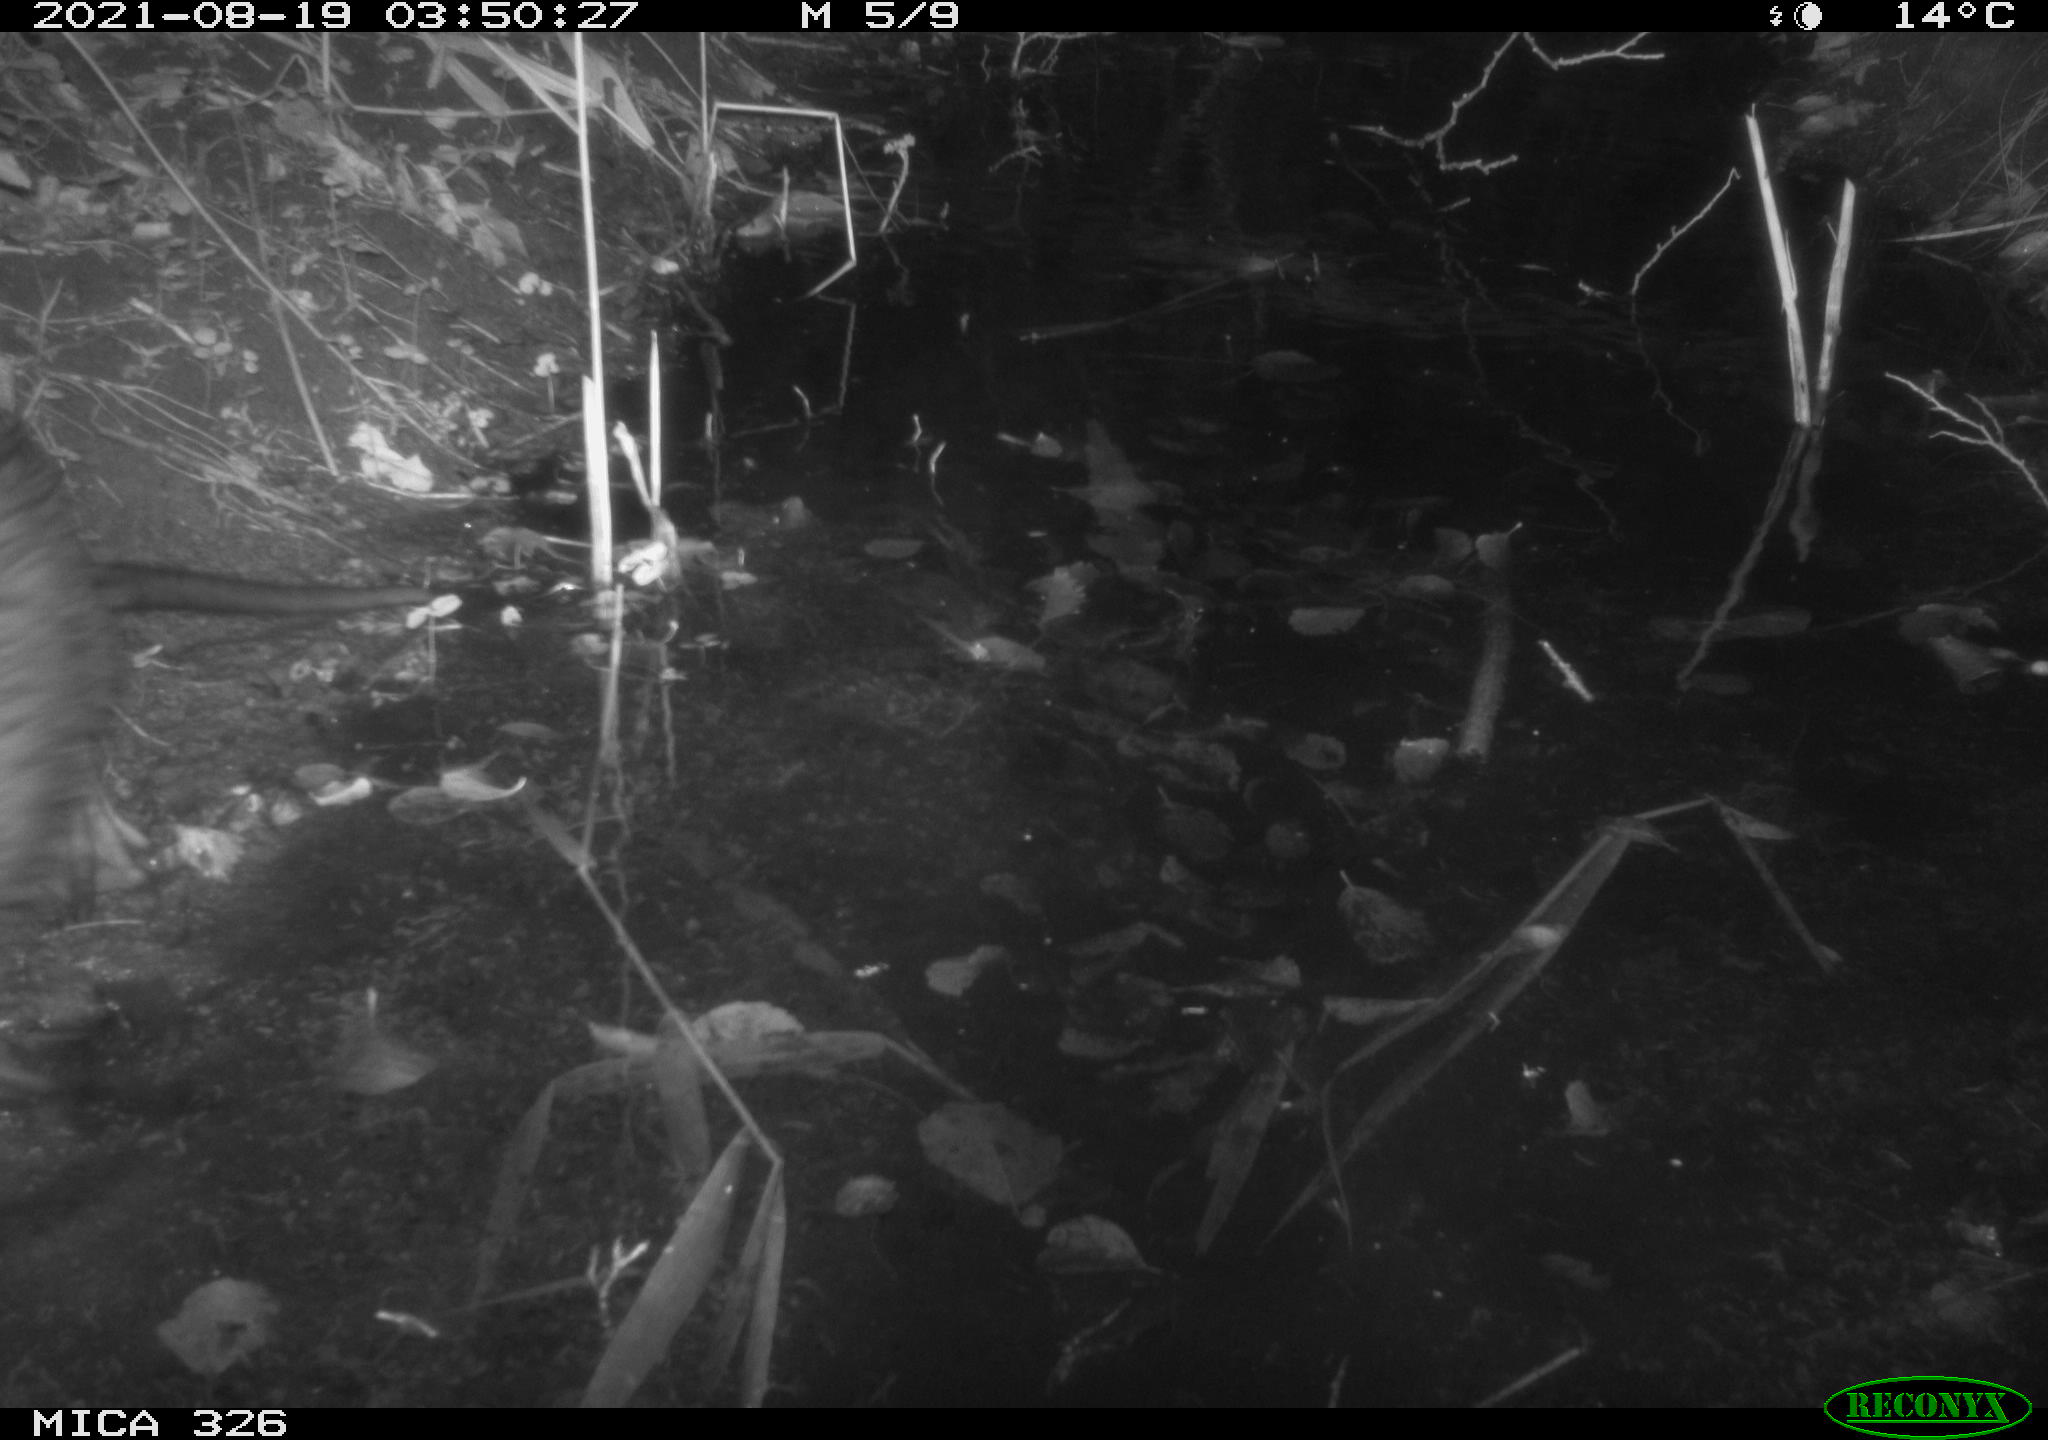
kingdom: Animalia
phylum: Chordata
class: Mammalia
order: Rodentia
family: Myocastoridae
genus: Myocastor
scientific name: Myocastor coypus
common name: Coypu
